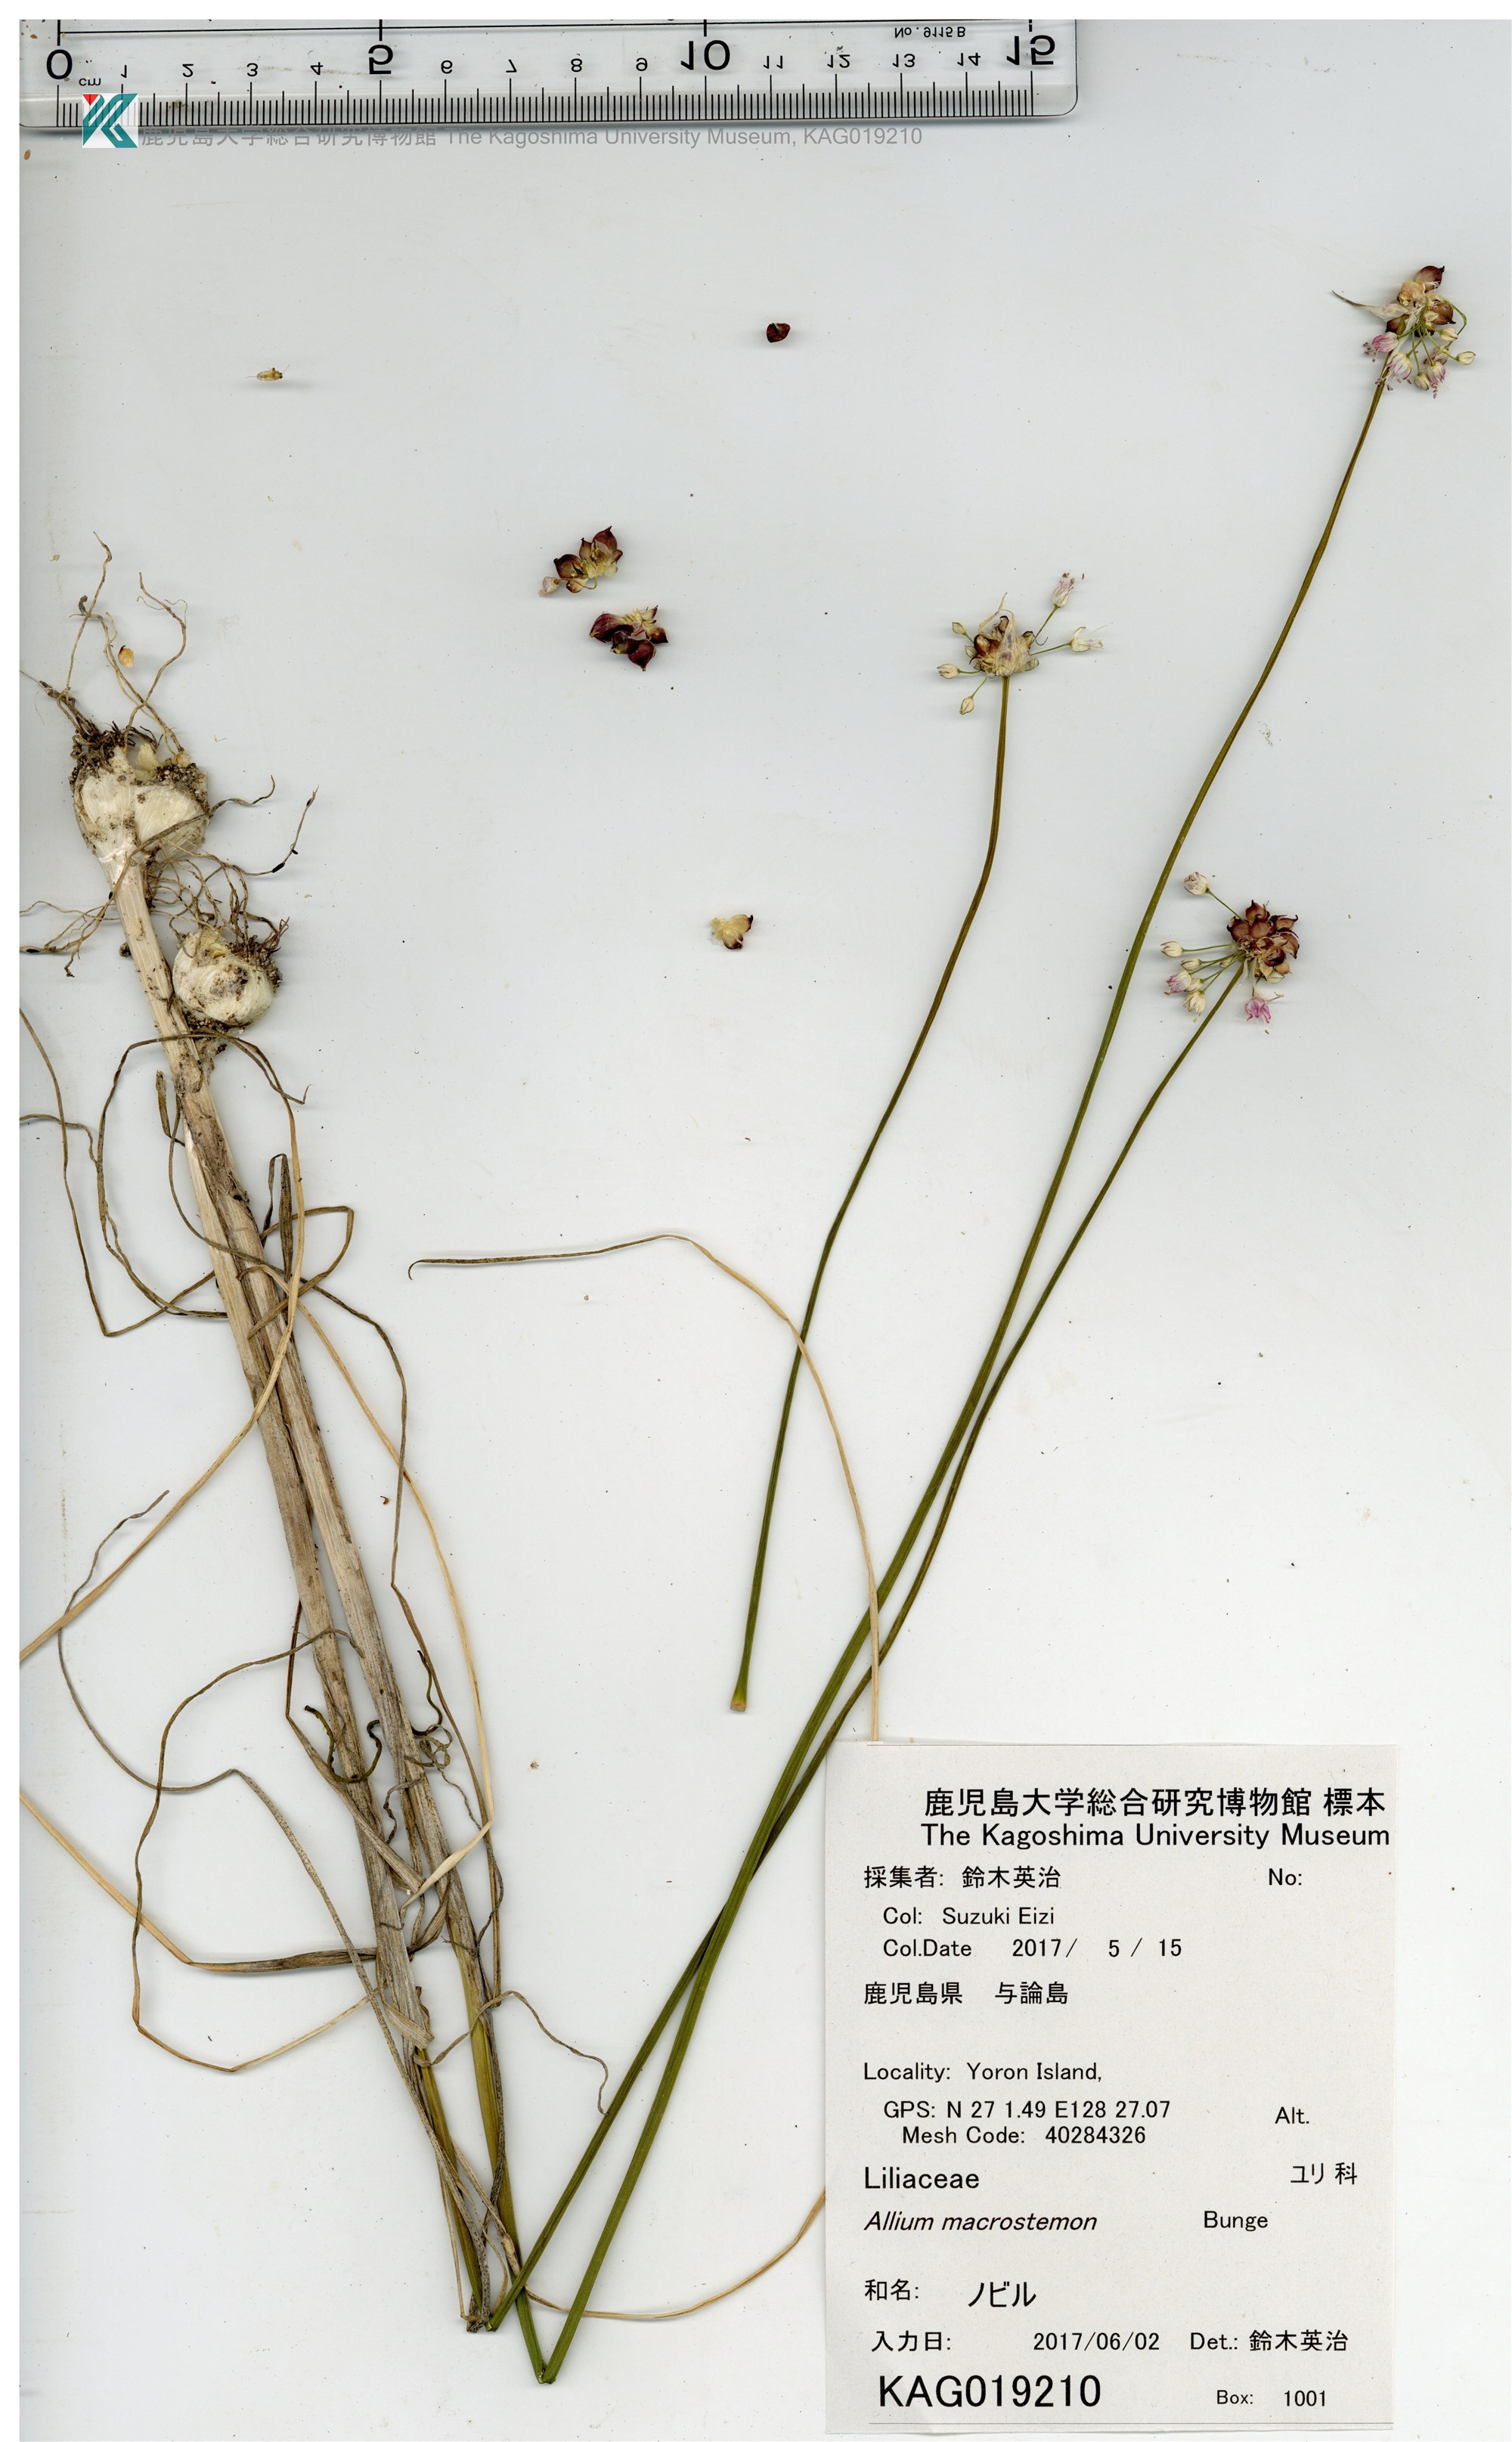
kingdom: Plantae
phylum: Tracheophyta
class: Liliopsida
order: Asparagales
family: Amaryllidaceae
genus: Allium
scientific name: Allium macrostemon
